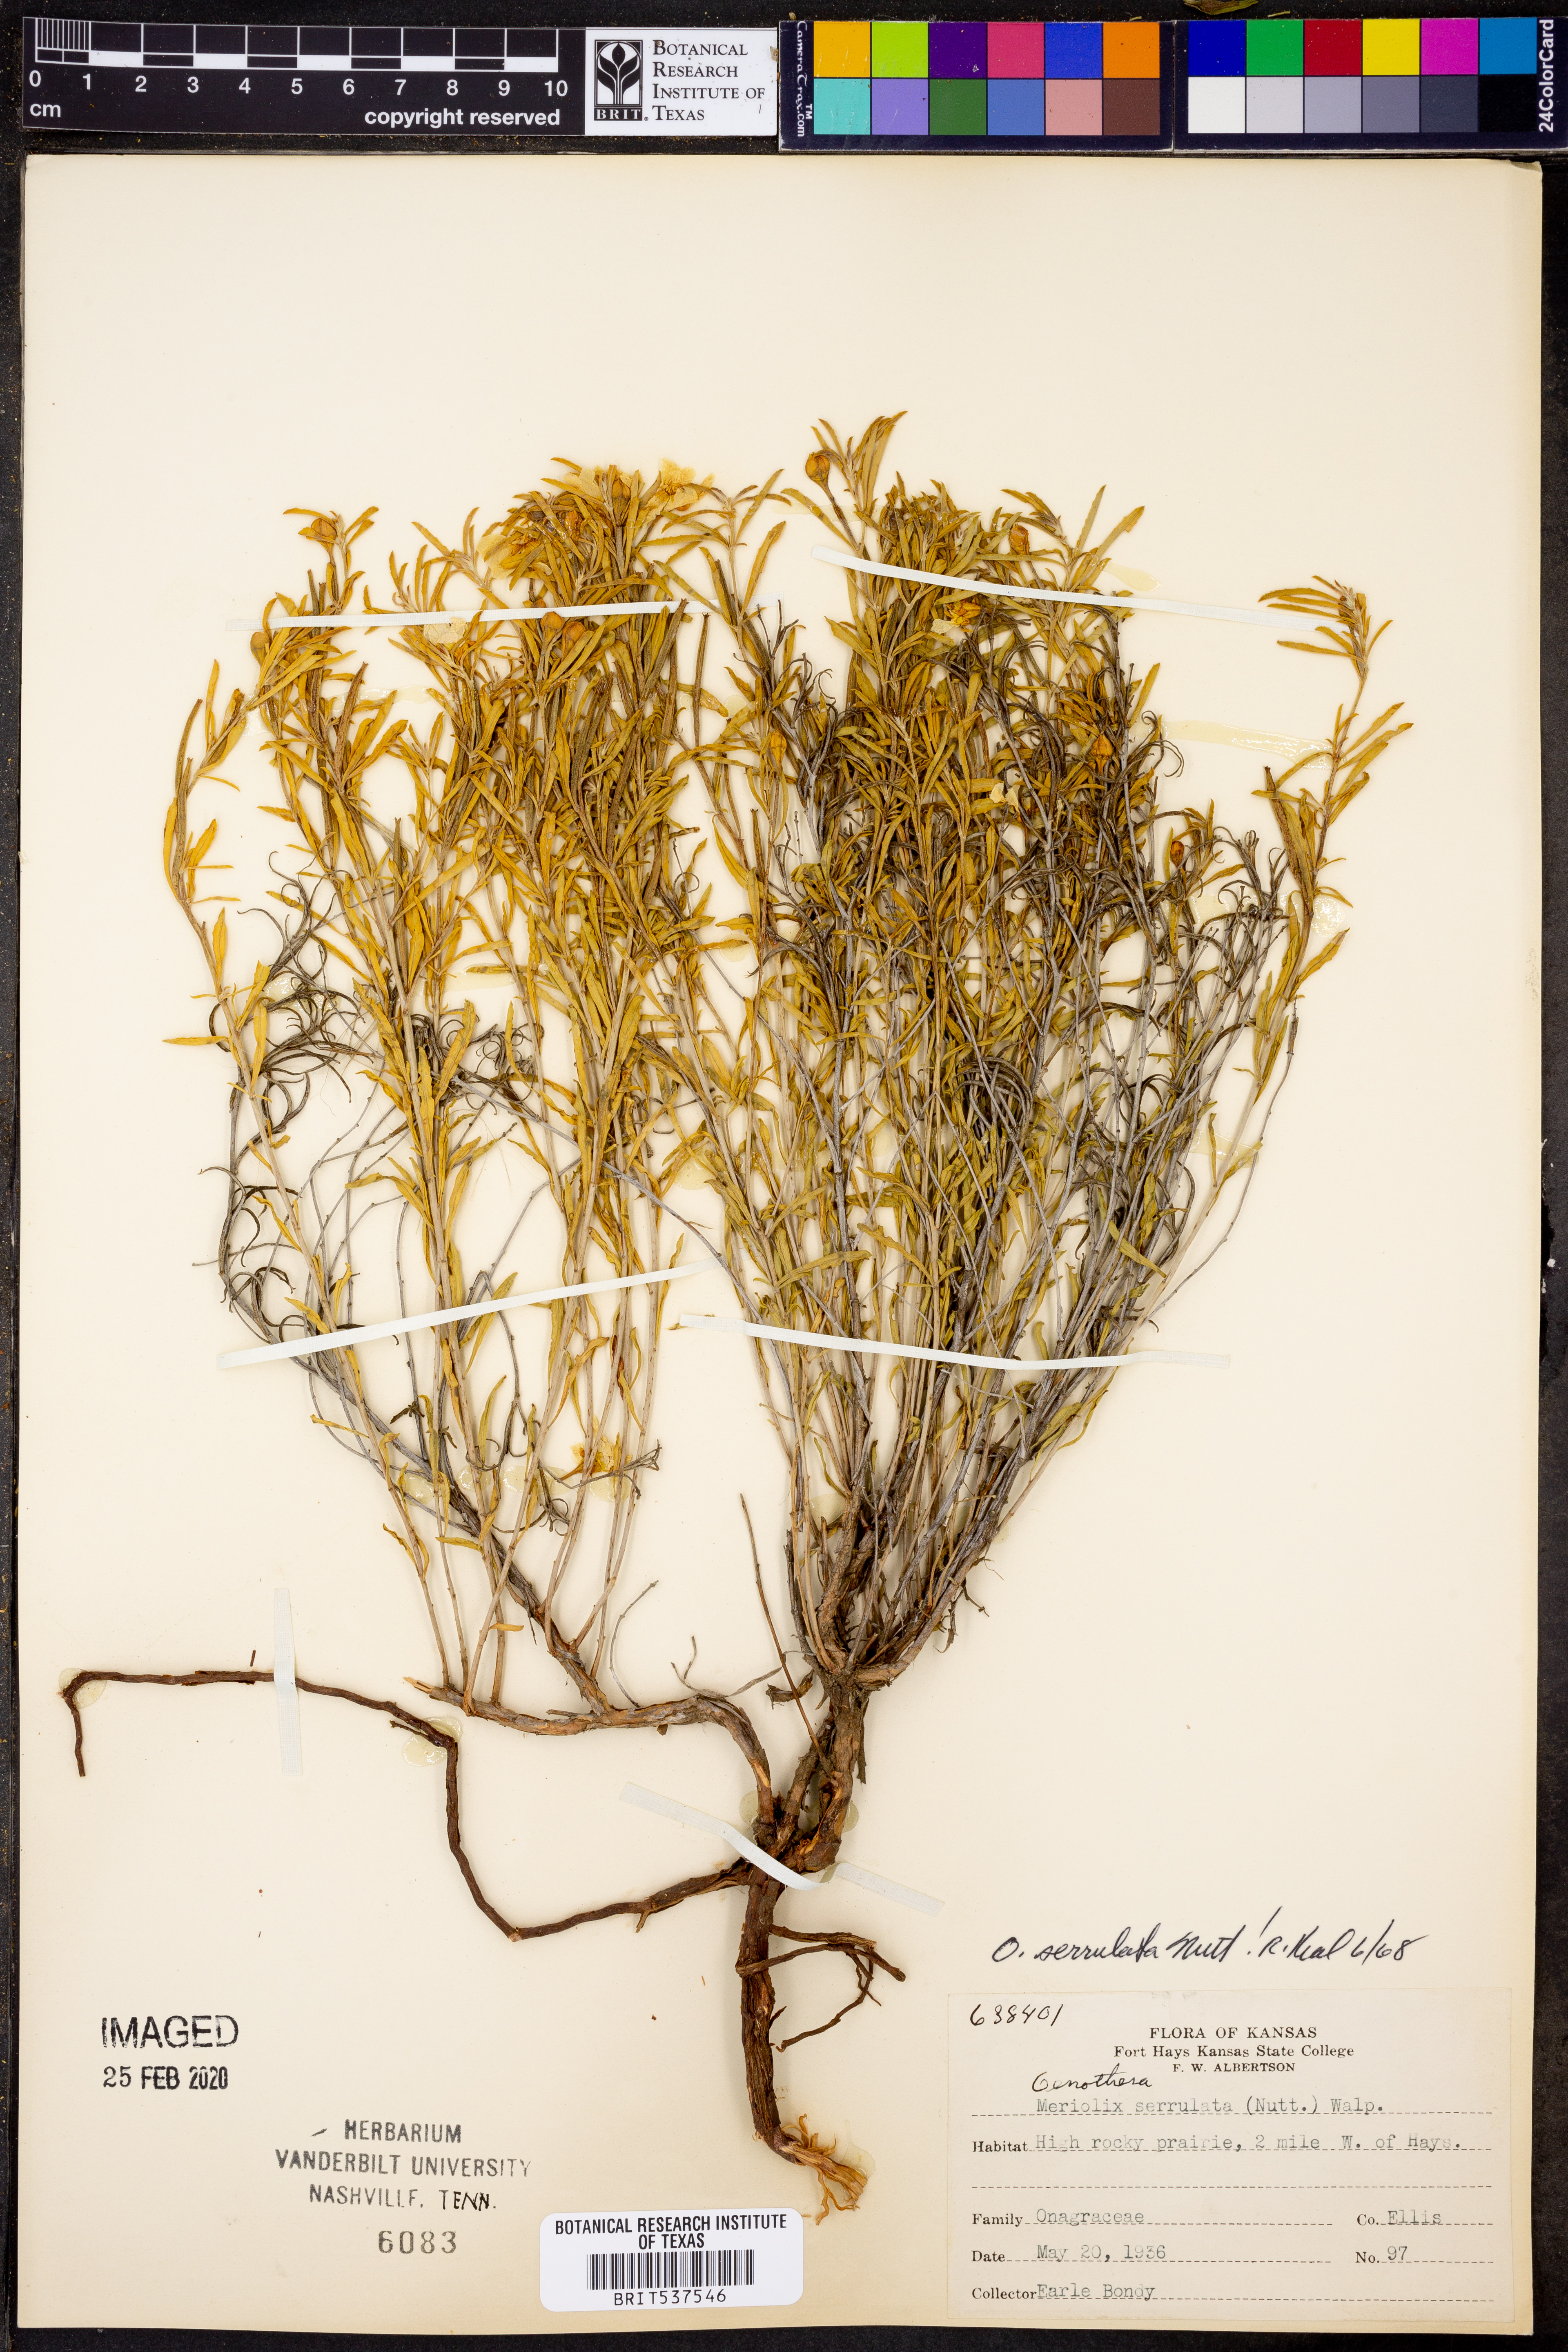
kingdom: Plantae
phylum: Tracheophyta
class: Magnoliopsida
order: Myrtales
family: Onagraceae
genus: Oenothera
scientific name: Oenothera serrulata
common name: Half-shrub calylophus
